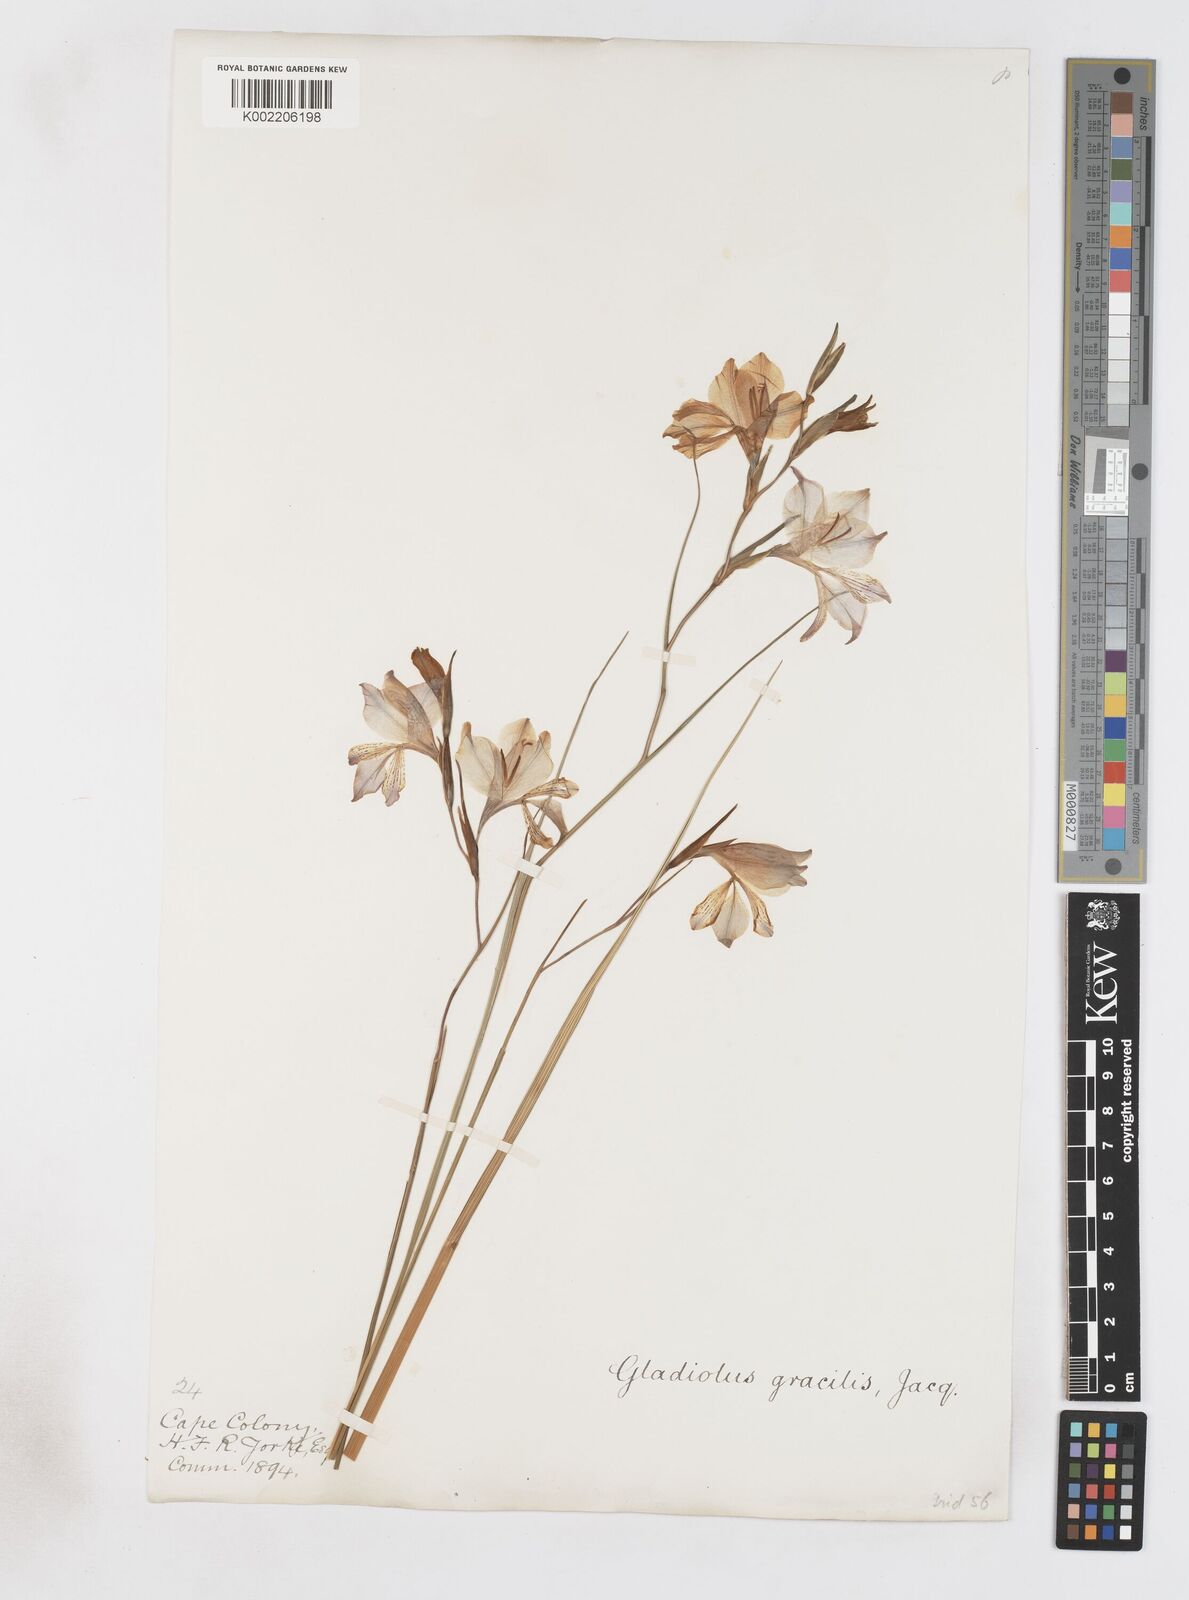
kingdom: Plantae
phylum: Tracheophyta
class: Liliopsida
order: Asparagales
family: Iridaceae
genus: Gladiolus
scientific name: Gladiolus gracilis
